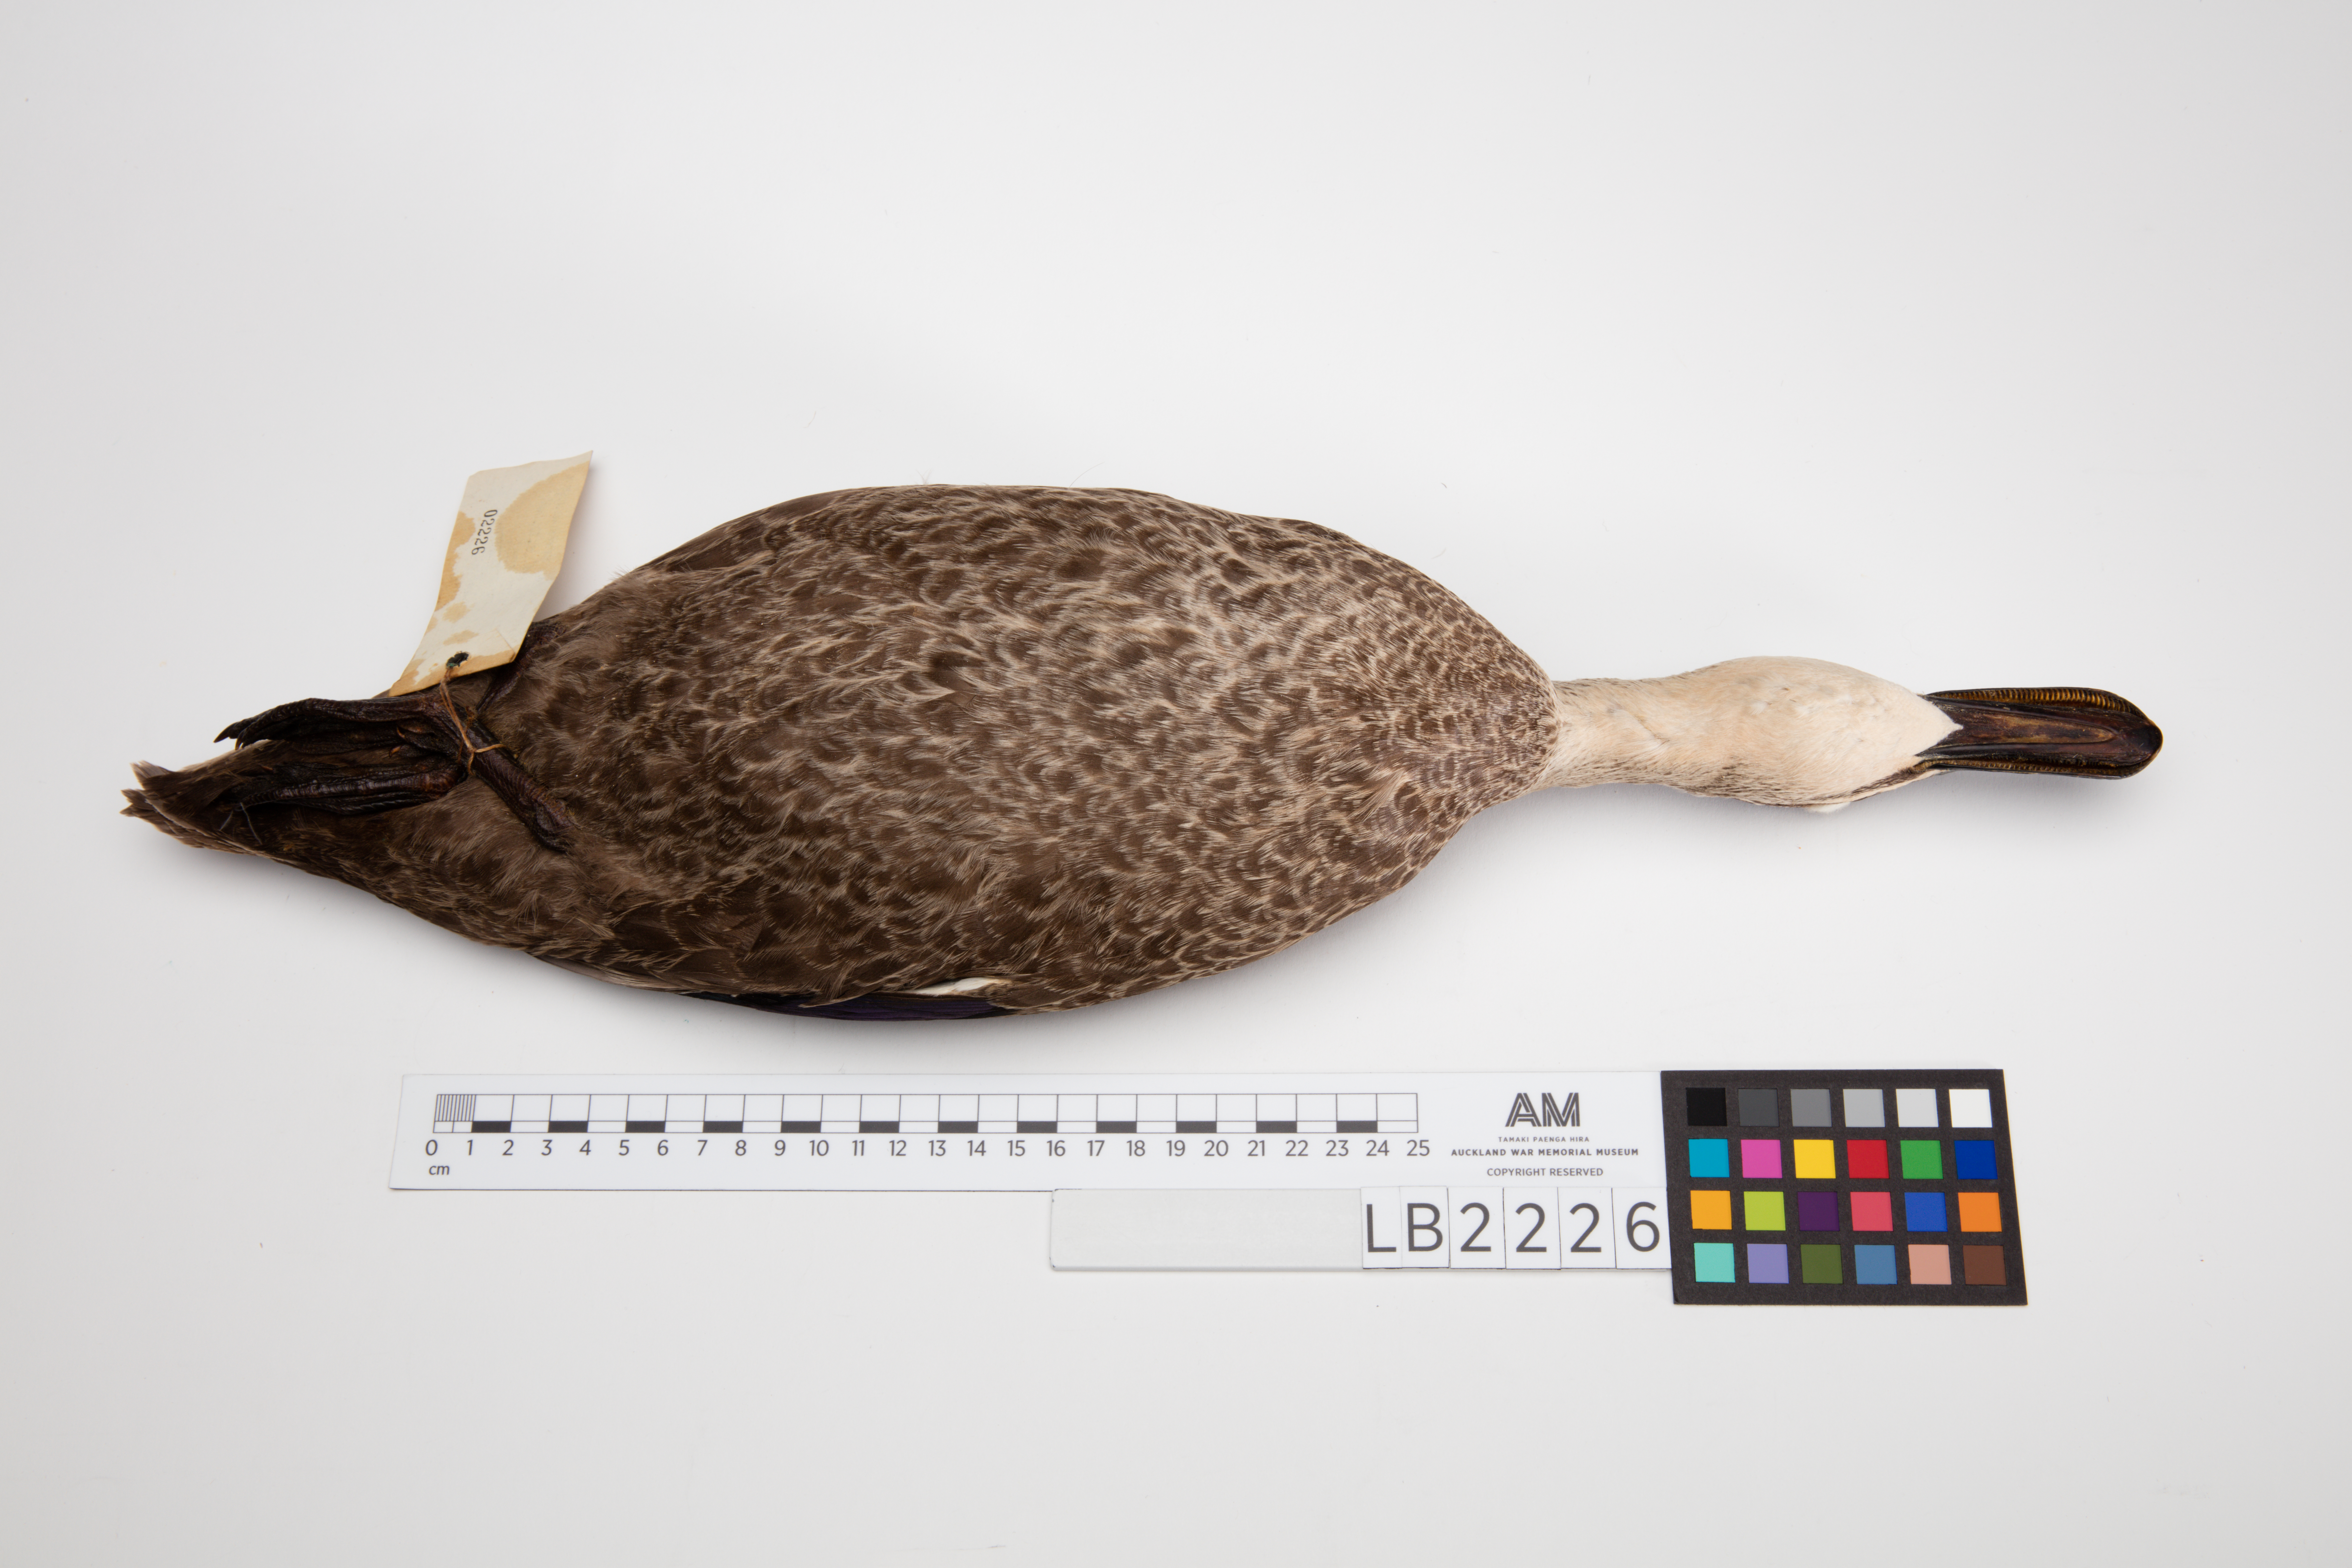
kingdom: Animalia
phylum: Chordata
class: Aves
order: Anseriformes
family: Anatidae
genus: Anas
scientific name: Anas superciliosa
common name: Pacific black duck
